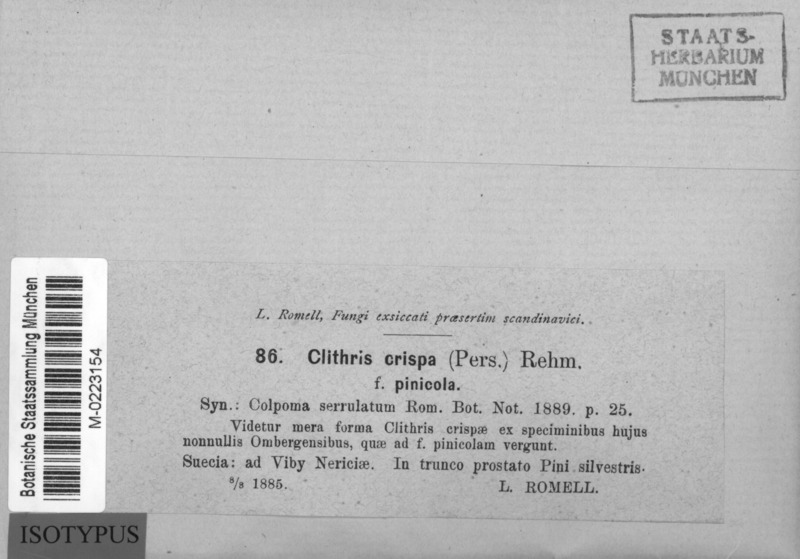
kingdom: Fungi
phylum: Ascomycota
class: Leotiomycetes
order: Rhytismatales
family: Rhytismataceae
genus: Colpoma
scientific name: Colpoma crispum
